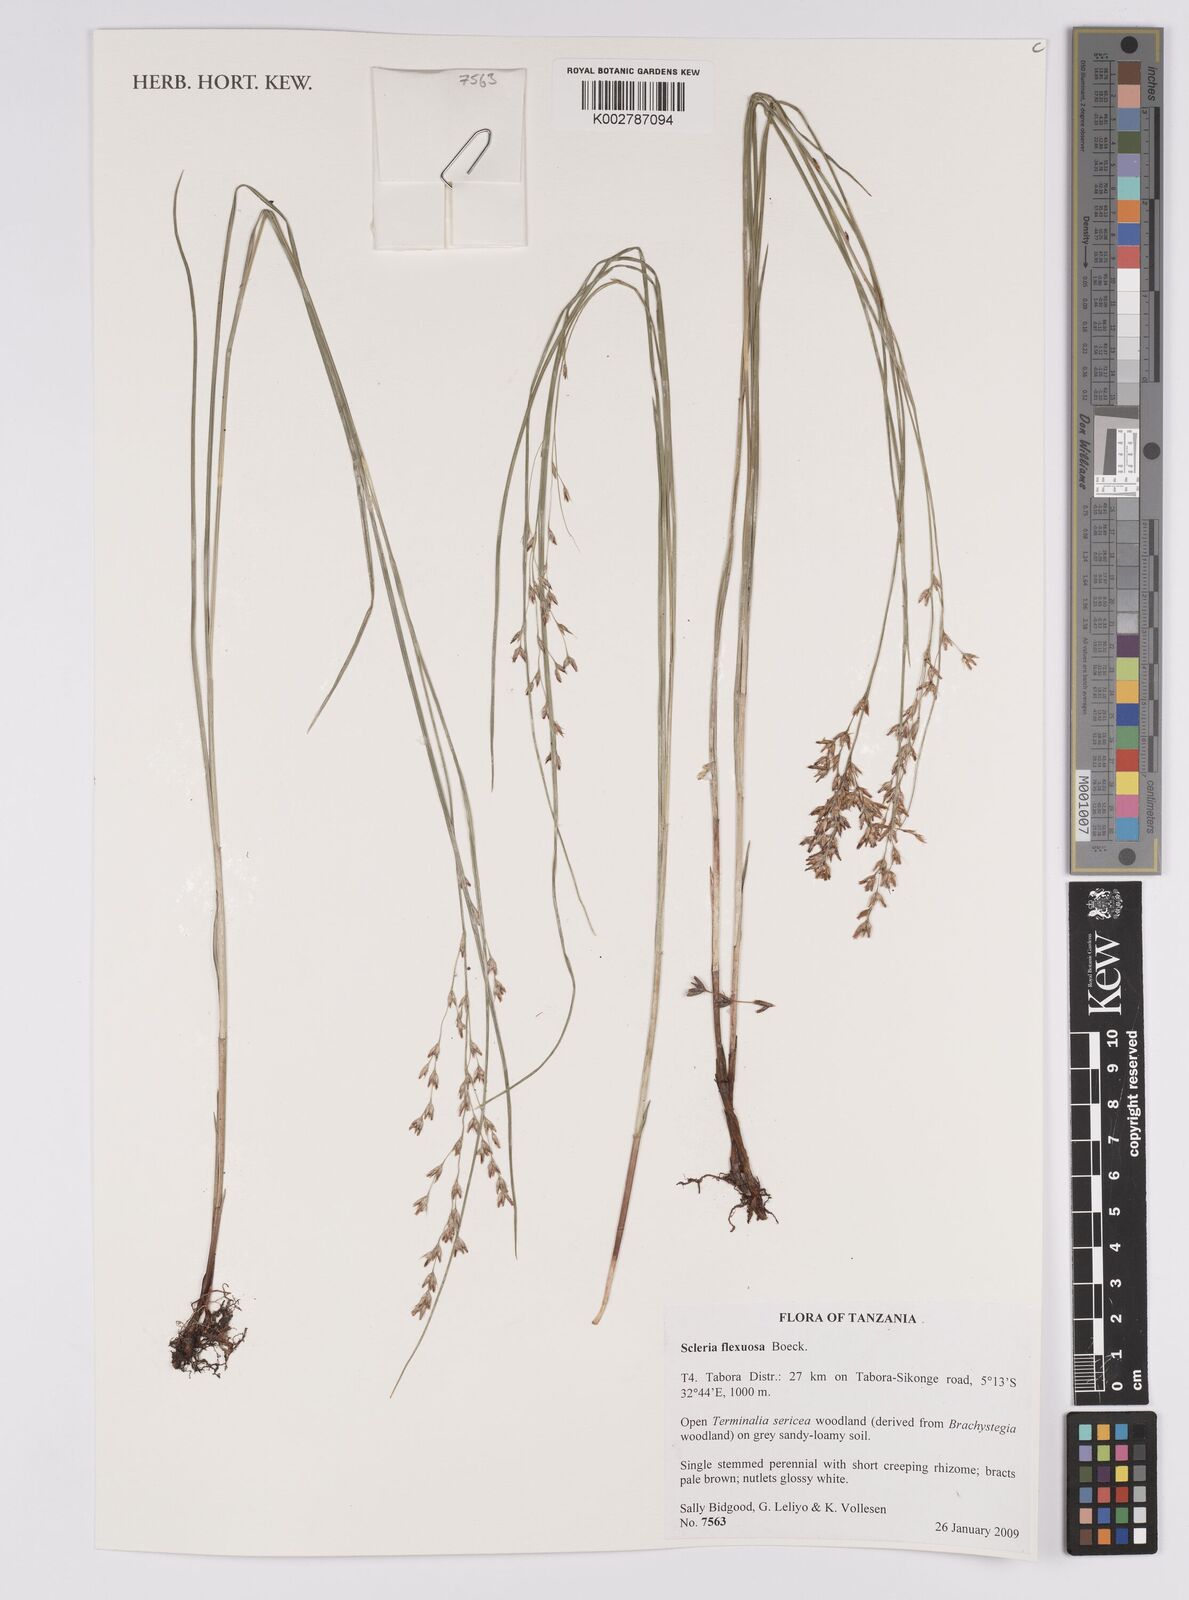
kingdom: Plantae
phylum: Tracheophyta
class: Liliopsida
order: Poales
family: Cyperaceae
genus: Scleria
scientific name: Scleria flexuosa
